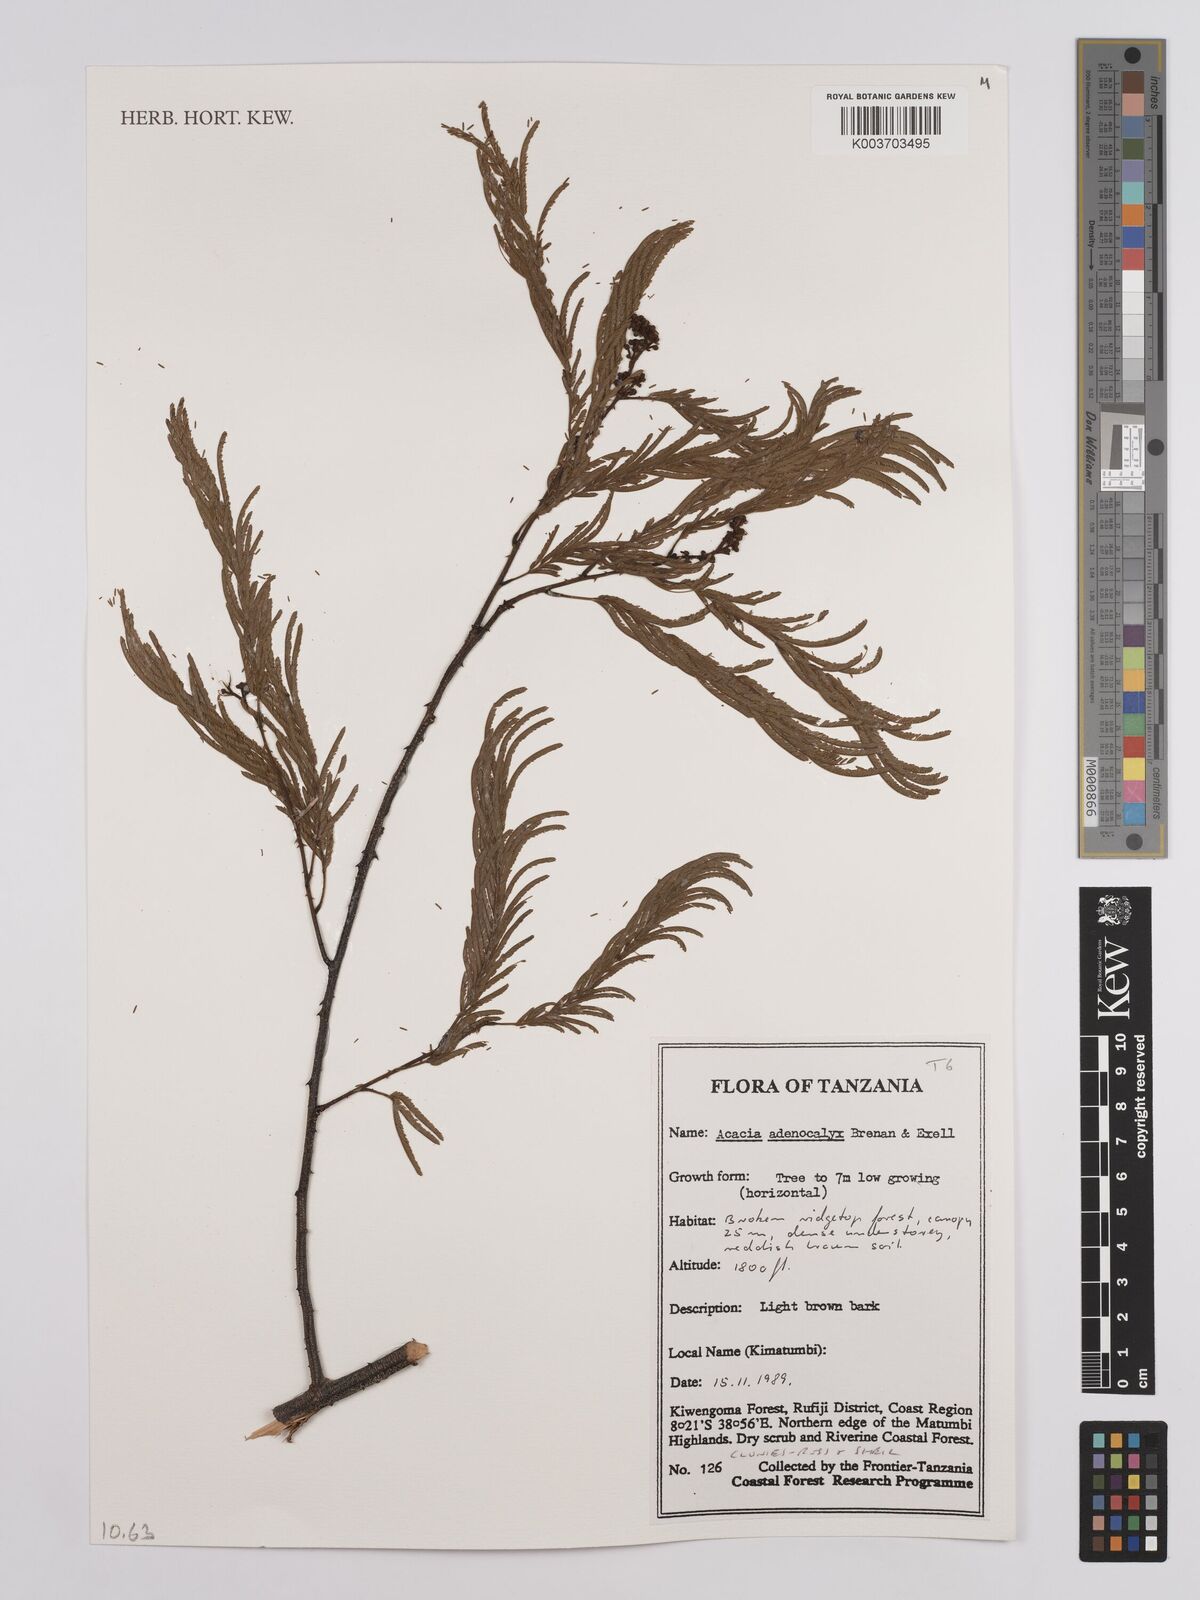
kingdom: Plantae
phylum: Tracheophyta
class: Magnoliopsida
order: Fabales
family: Fabaceae
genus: Senegalia
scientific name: Senegalia adenocalyx
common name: Pfurura
